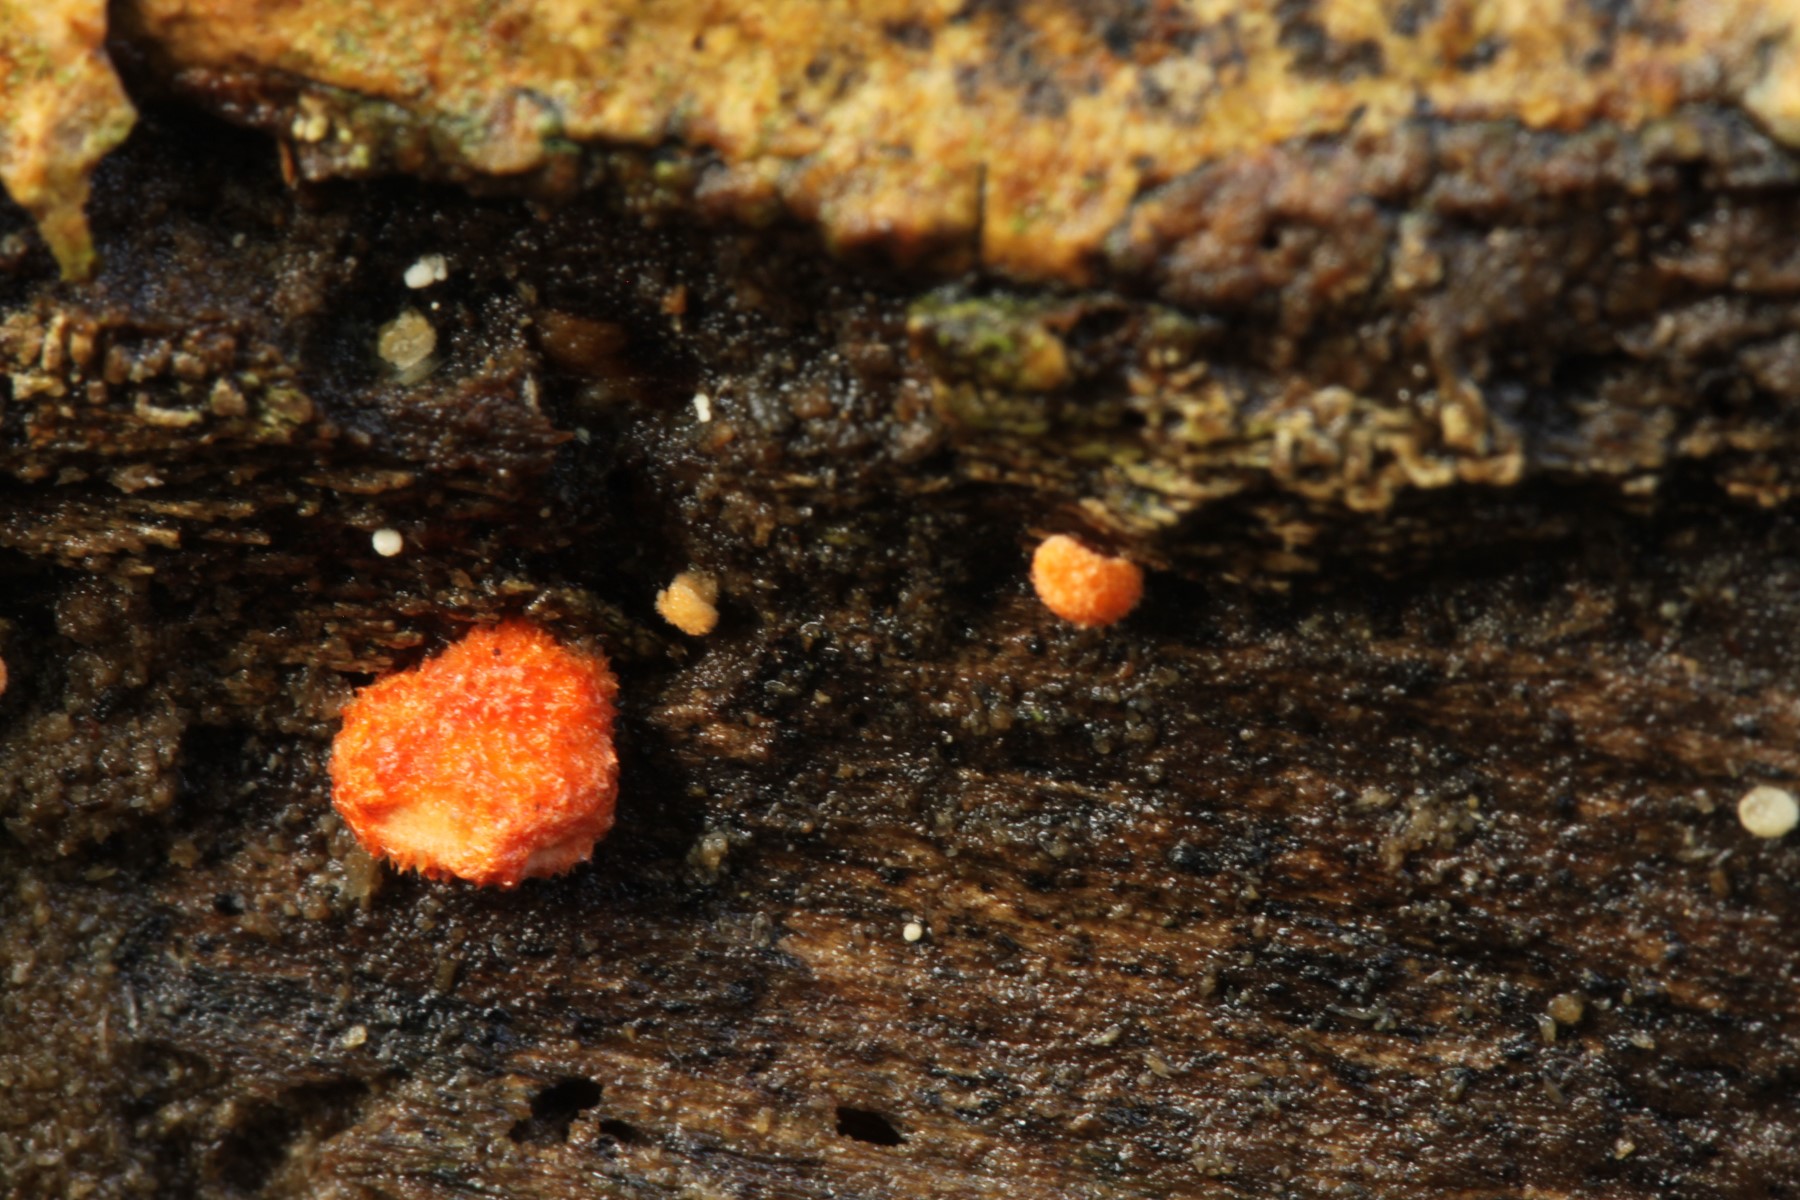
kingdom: Fungi
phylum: Basidiomycota
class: Agaricomycetes
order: Agaricales
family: Crepidotaceae
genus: Crepidotus
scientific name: Crepidotus cinnabarinus
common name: cinnober-muslingesvamp
